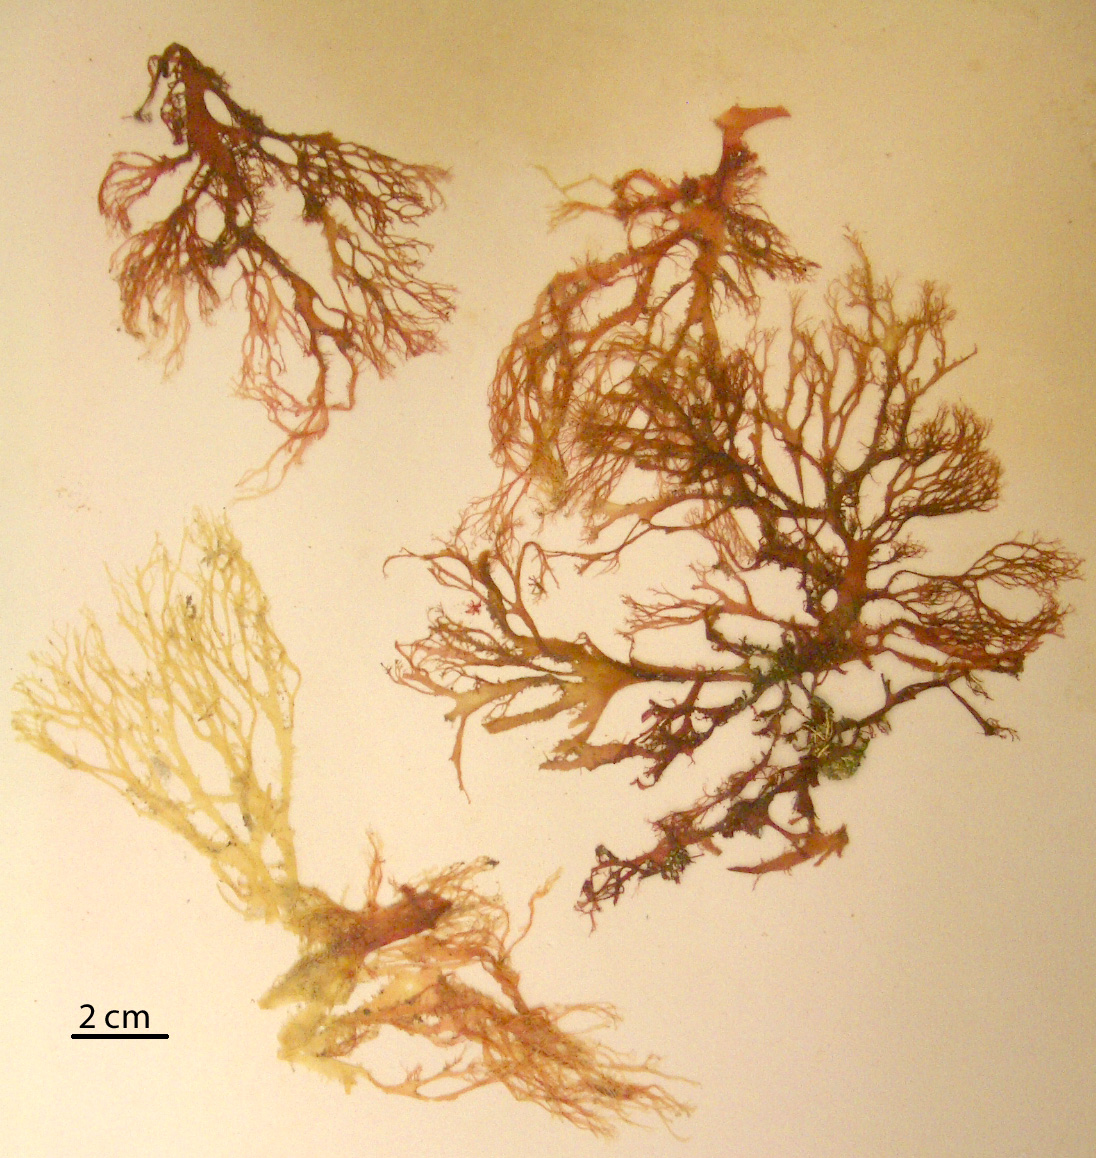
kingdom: Plantae
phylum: Rhodophyta
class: Florideophyceae
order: Gigartinales
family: Kallymeniaceae
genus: Thamnophyllis
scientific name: Thamnophyllis
